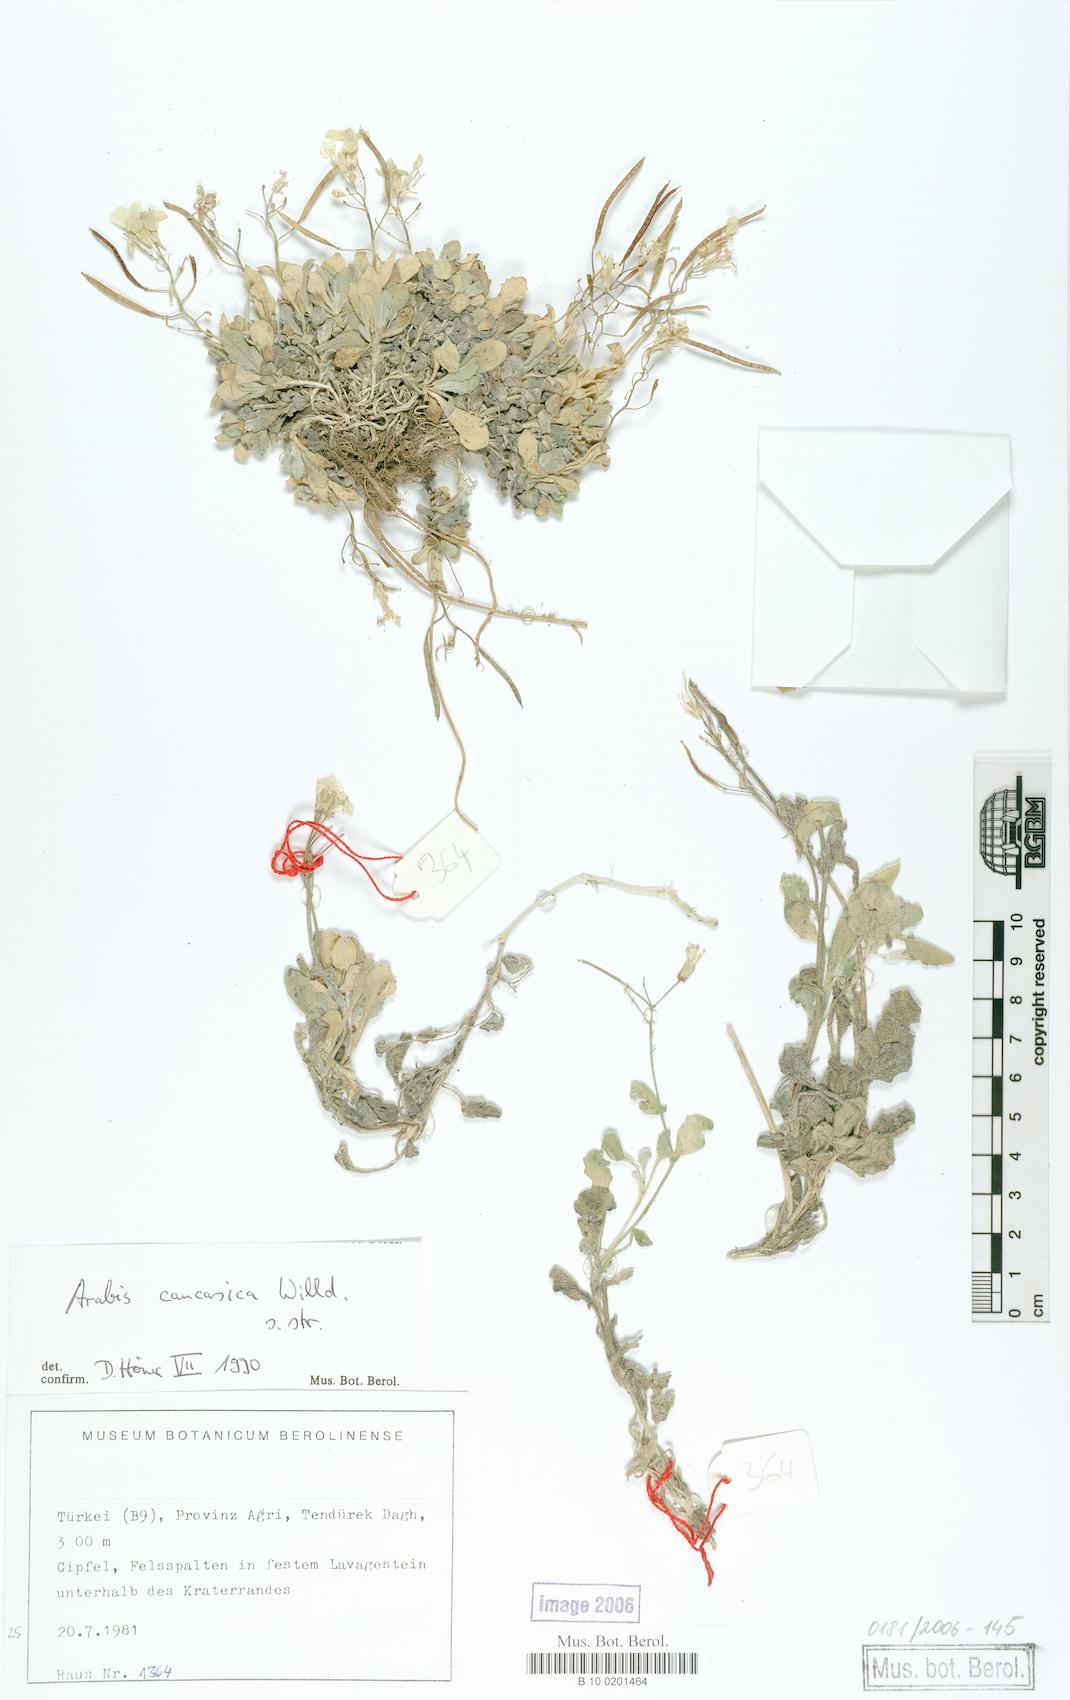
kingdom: Plantae
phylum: Tracheophyta
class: Magnoliopsida
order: Brassicales
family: Brassicaceae
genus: Arabis
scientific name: Arabis caucasica
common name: Gray rockcress
